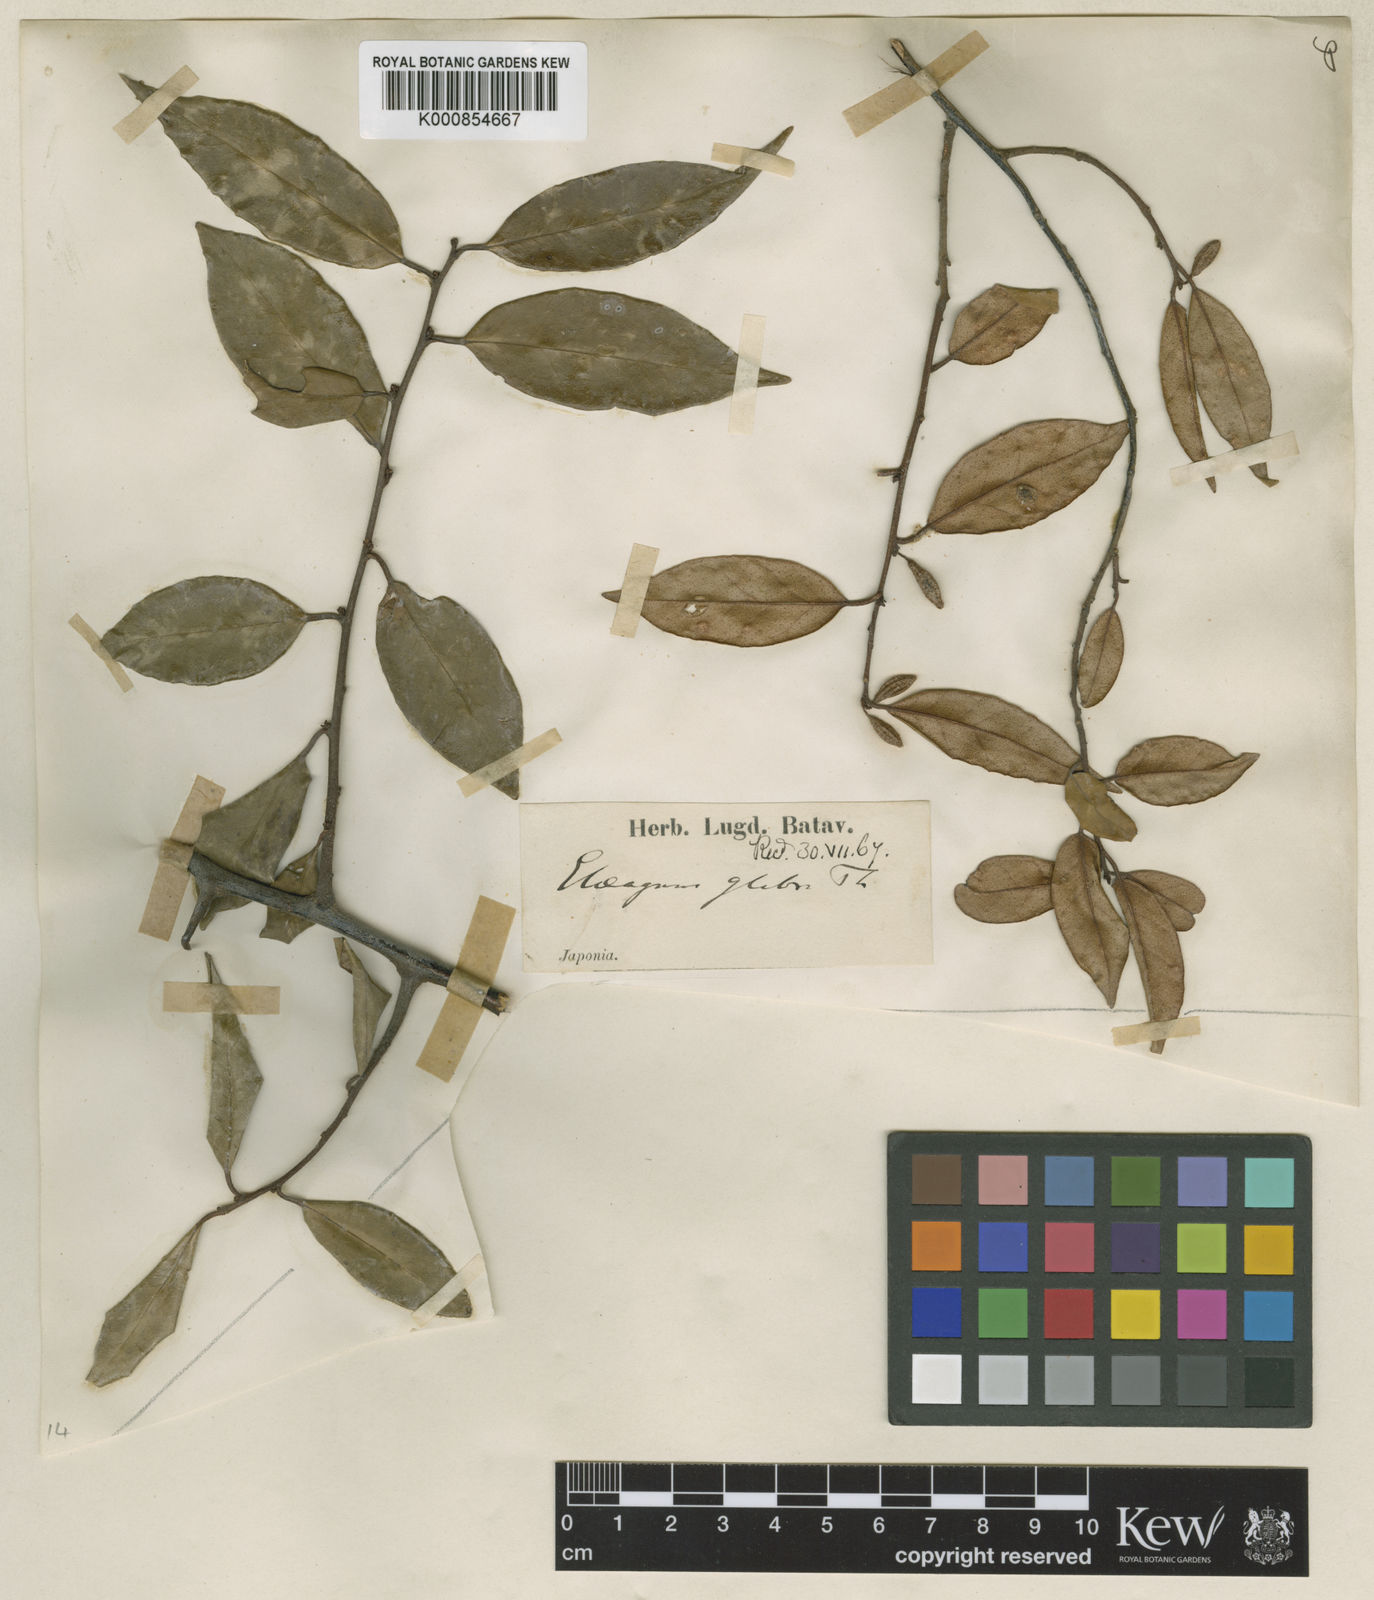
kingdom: Plantae
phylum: Tracheophyta
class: Magnoliopsida
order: Rosales
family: Elaeagnaceae
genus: Elaeagnus
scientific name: Elaeagnus glabra
